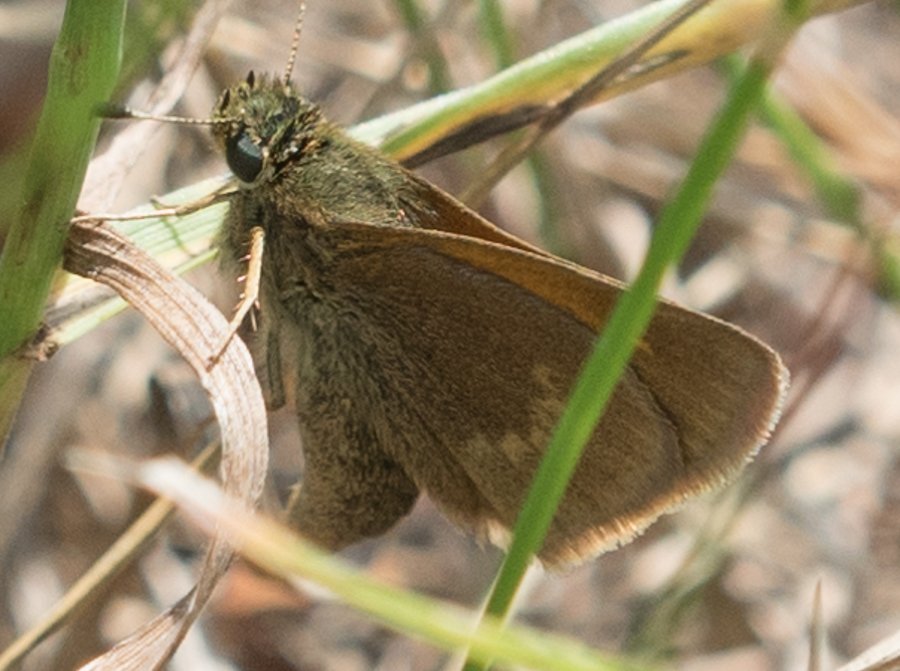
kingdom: Animalia
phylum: Arthropoda
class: Insecta
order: Lepidoptera
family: Hesperiidae
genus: Polites
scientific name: Polites themistocles
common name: Tawny-edged Skipper
